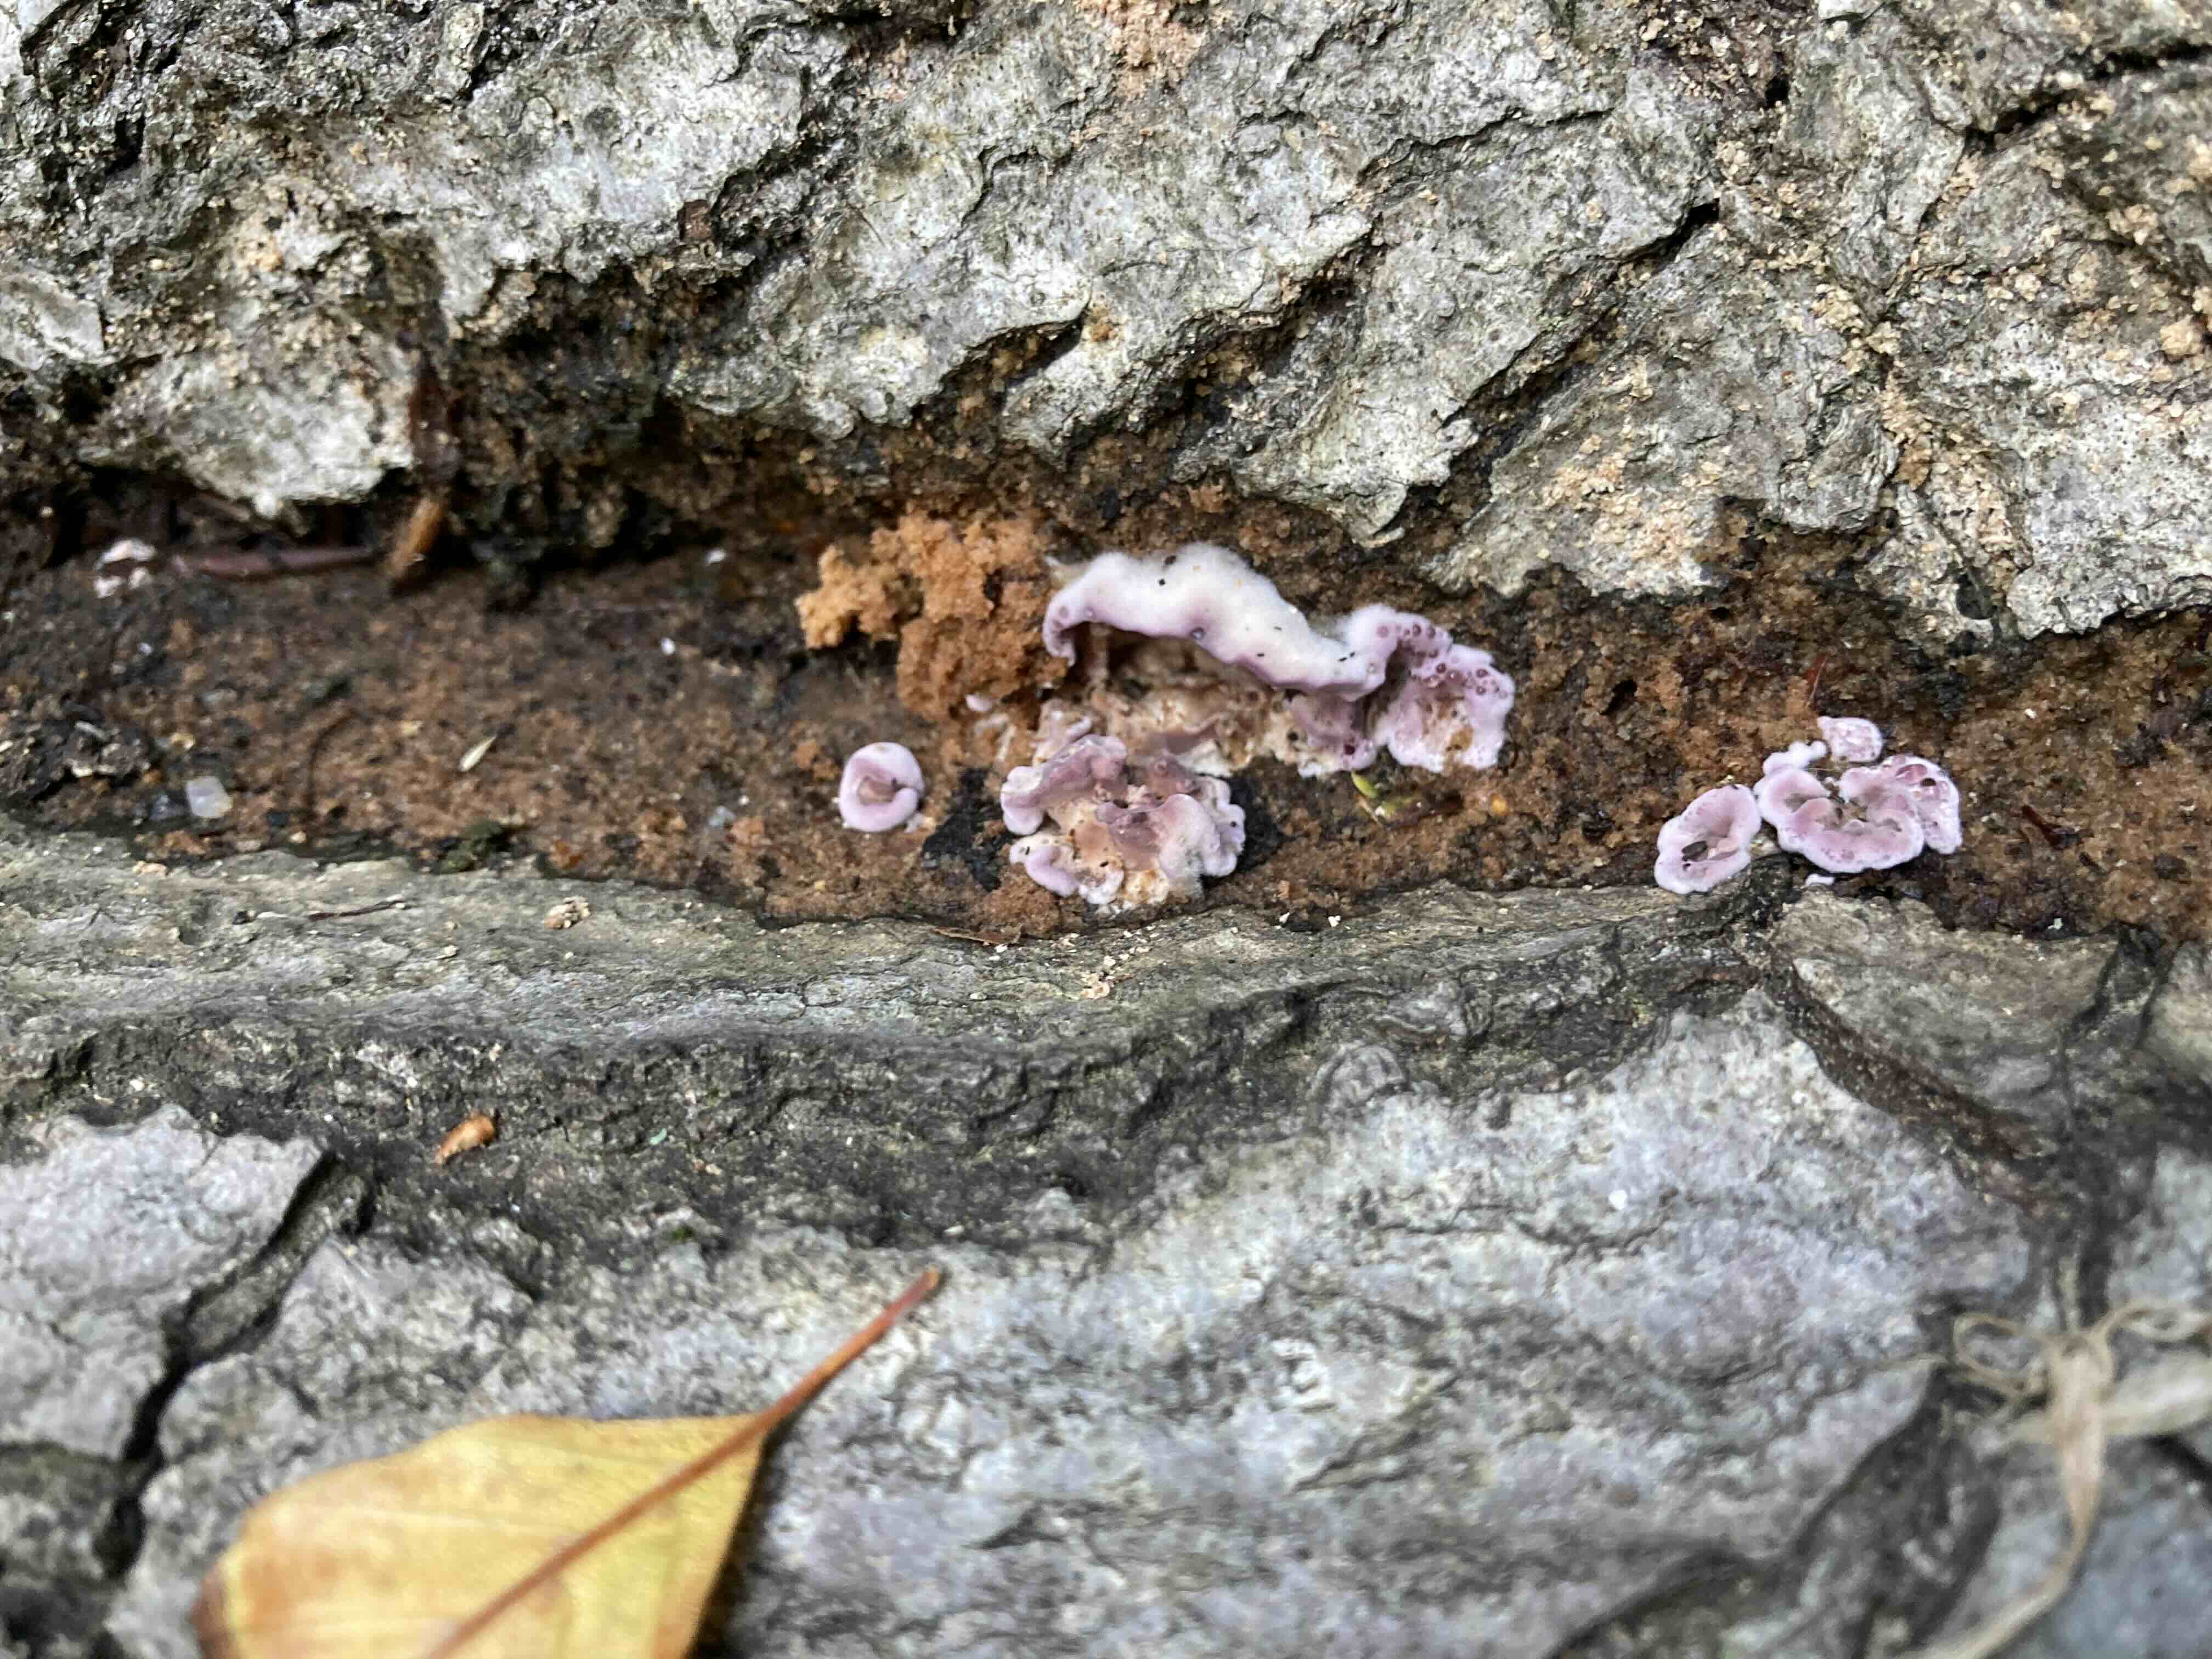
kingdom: Fungi
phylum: Basidiomycota
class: Agaricomycetes
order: Agaricales
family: Cyphellaceae
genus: Chondrostereum
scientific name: Chondrostereum purpureum
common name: purpurlædersvamp
